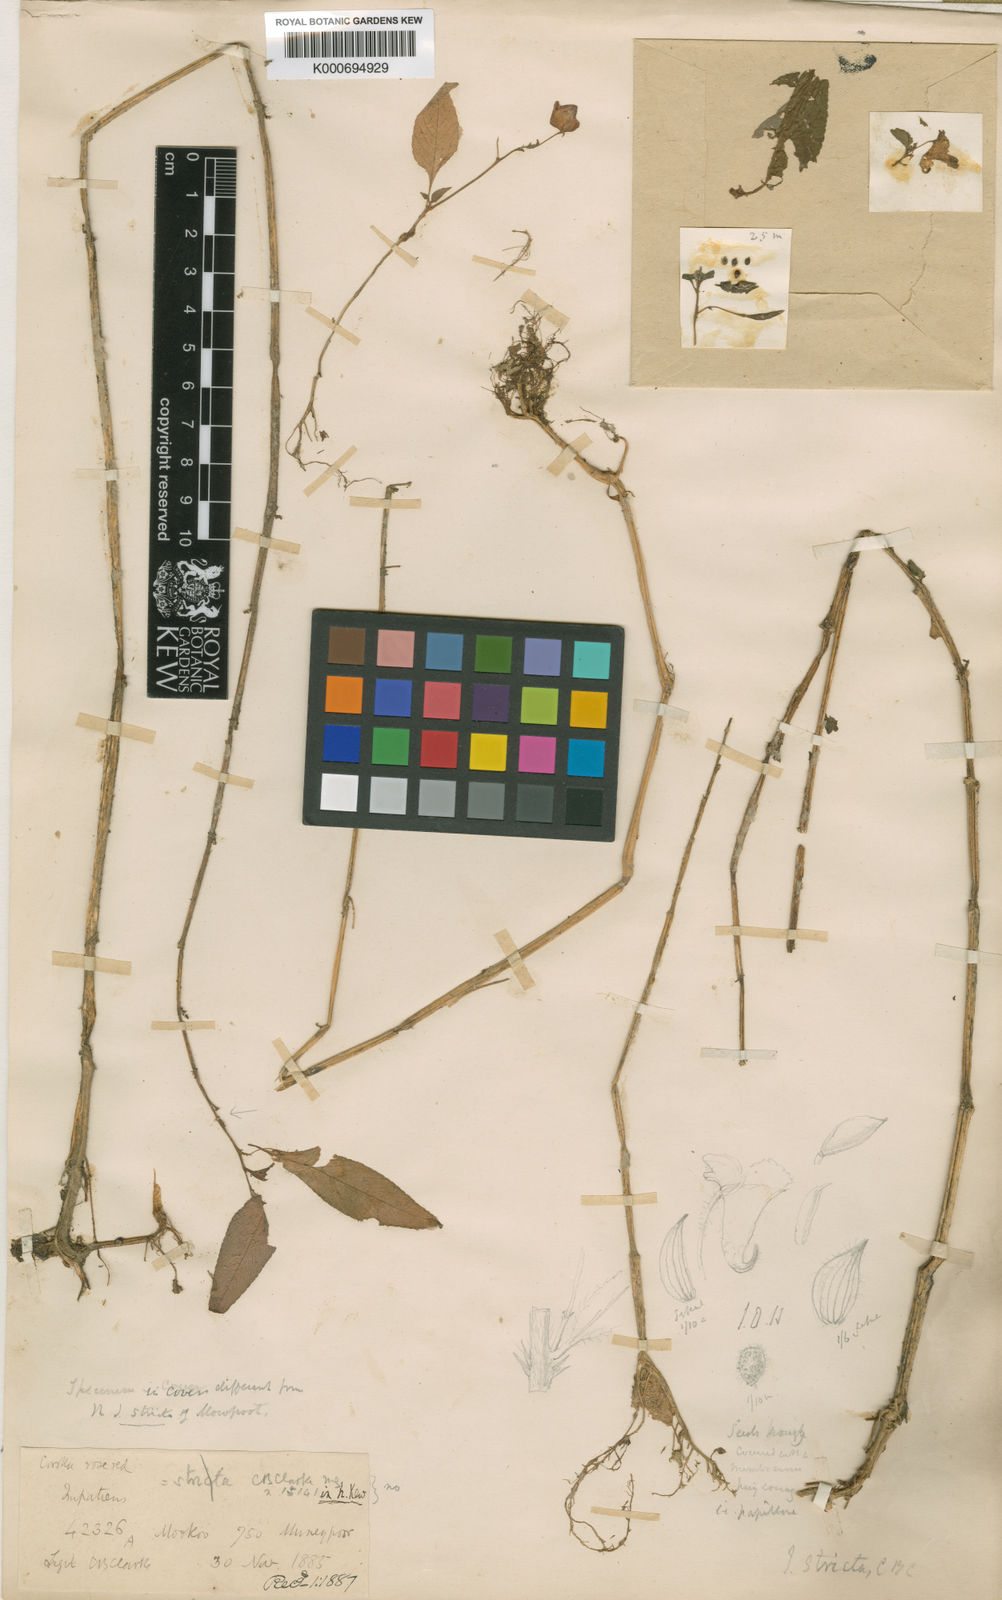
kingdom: Plantae
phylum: Tracheophyta
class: Magnoliopsida
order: Ericales
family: Balsaminaceae
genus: Impatiens
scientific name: Impatiens stricta
